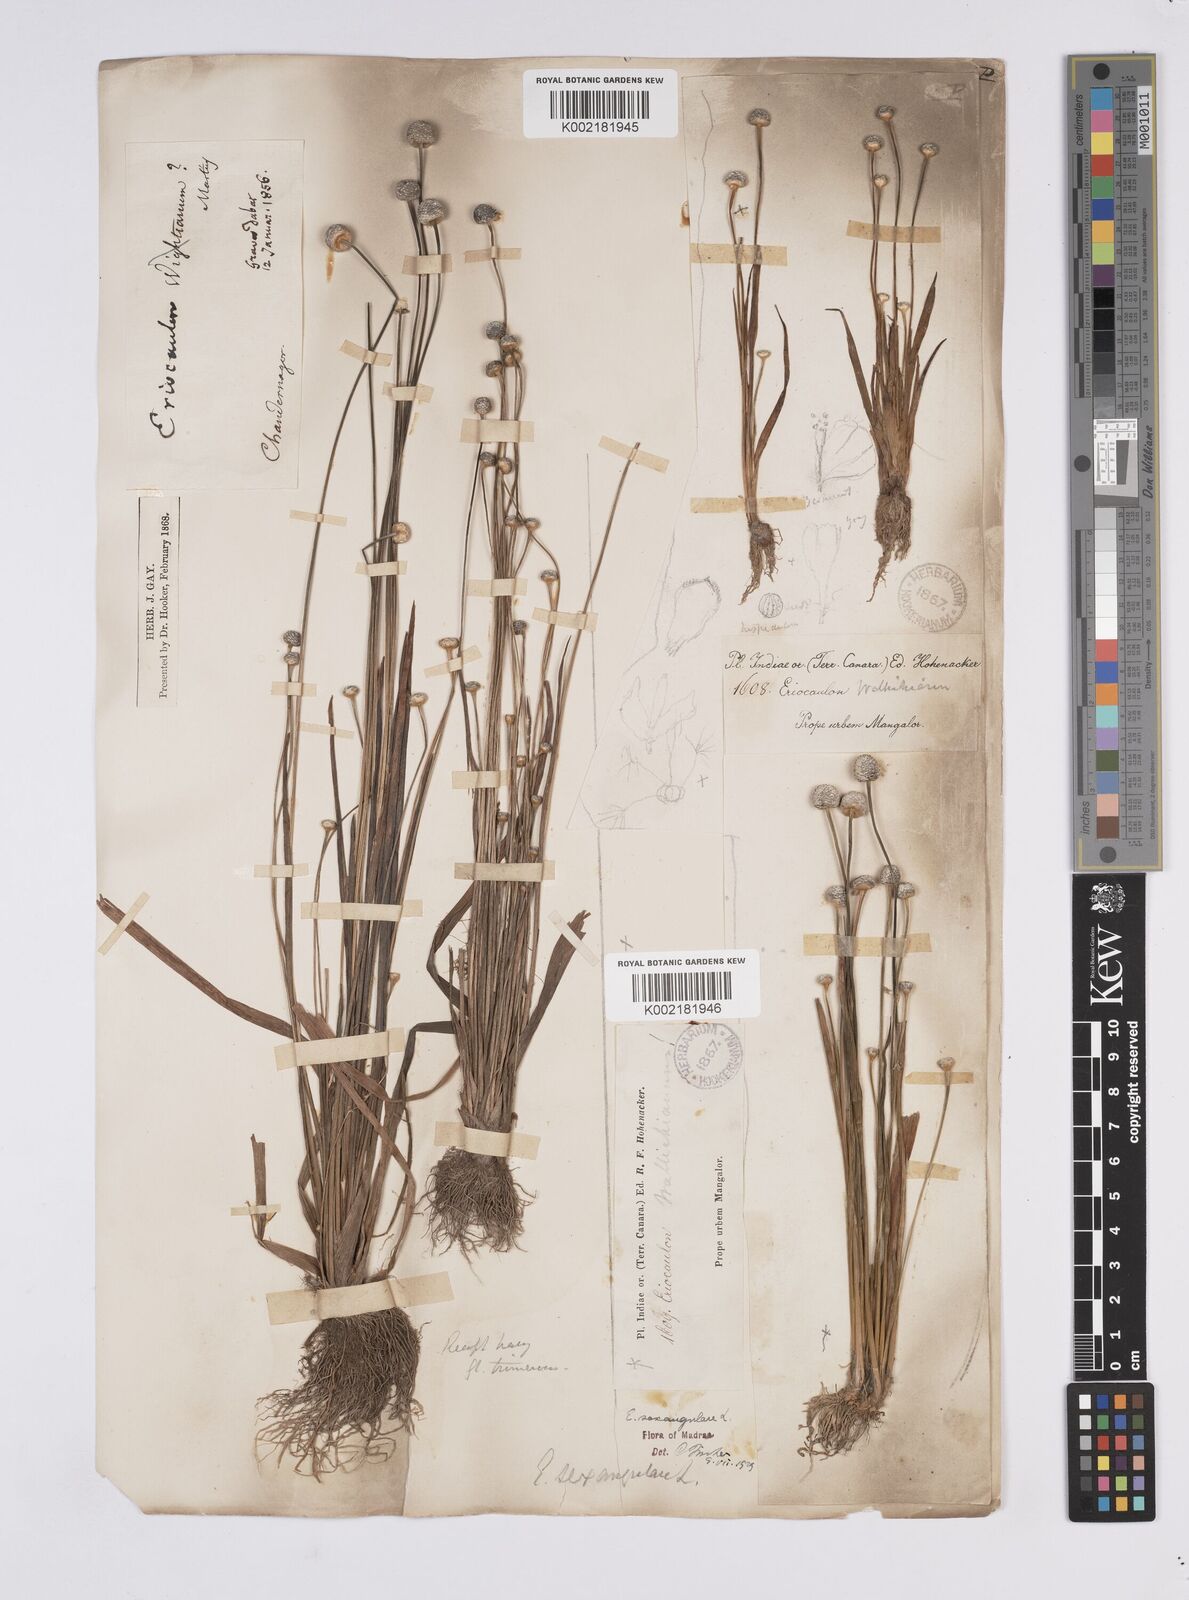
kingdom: Plantae
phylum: Tracheophyta
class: Liliopsida
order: Poales
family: Eriocaulaceae
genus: Eriocaulon
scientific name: Eriocaulon sexangulare
